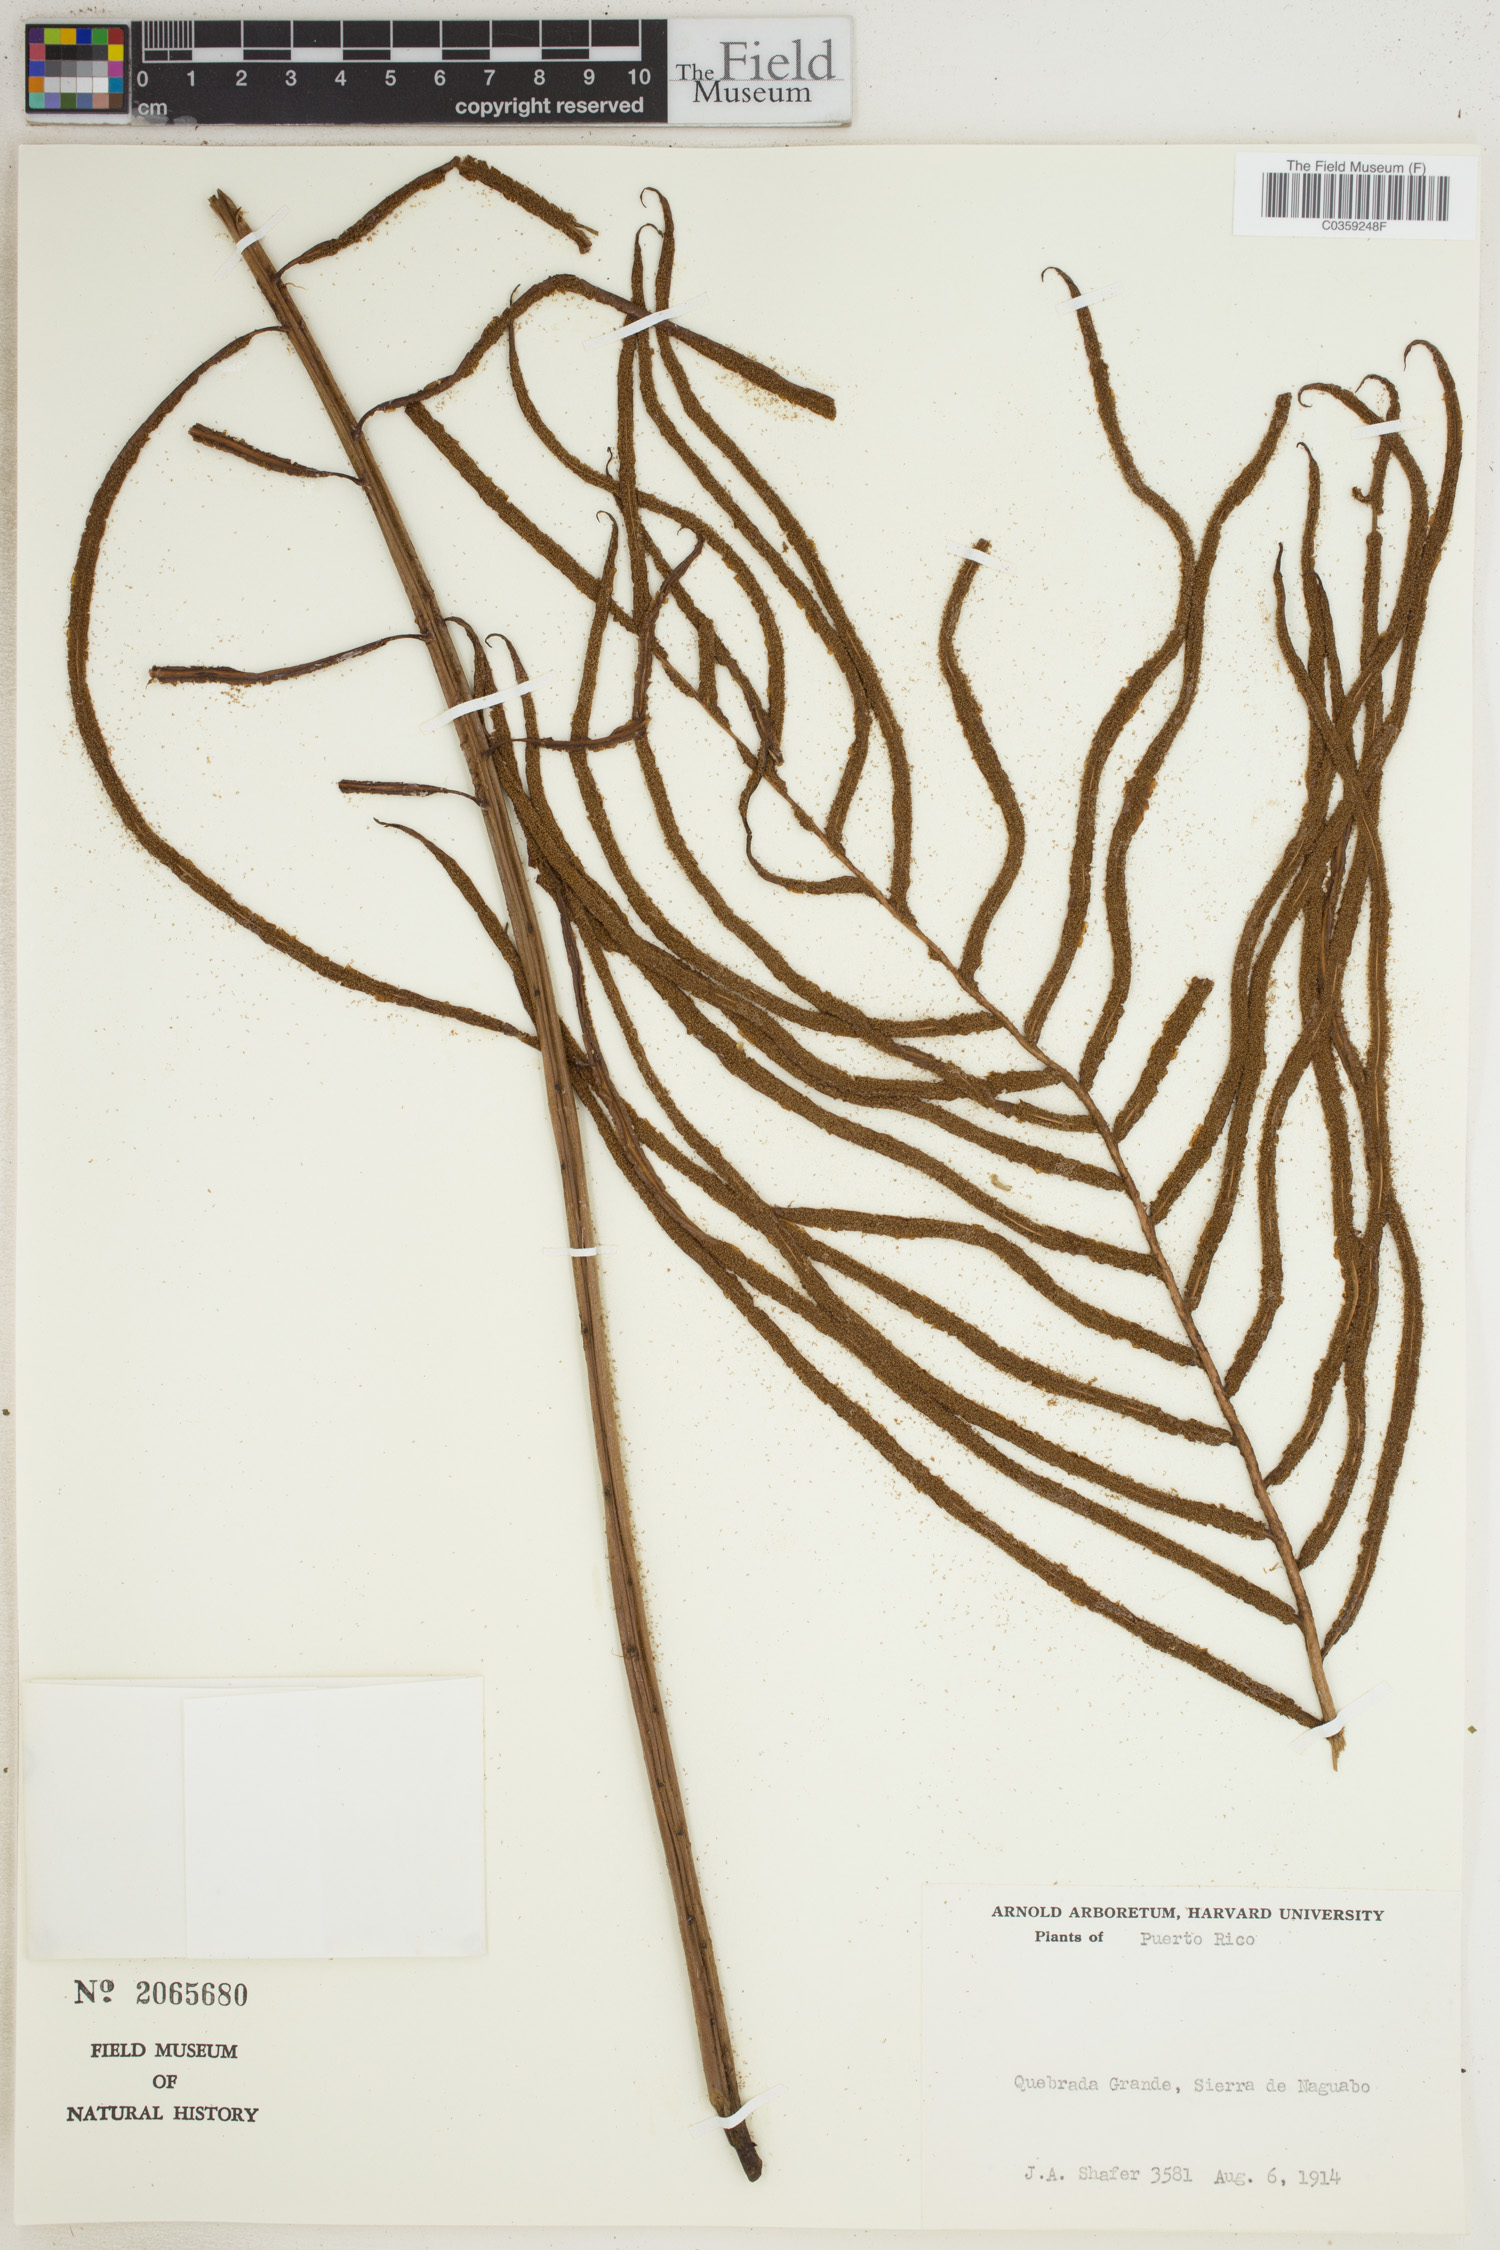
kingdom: Plantae
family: Pteridophyta
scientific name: Pteridophyta
